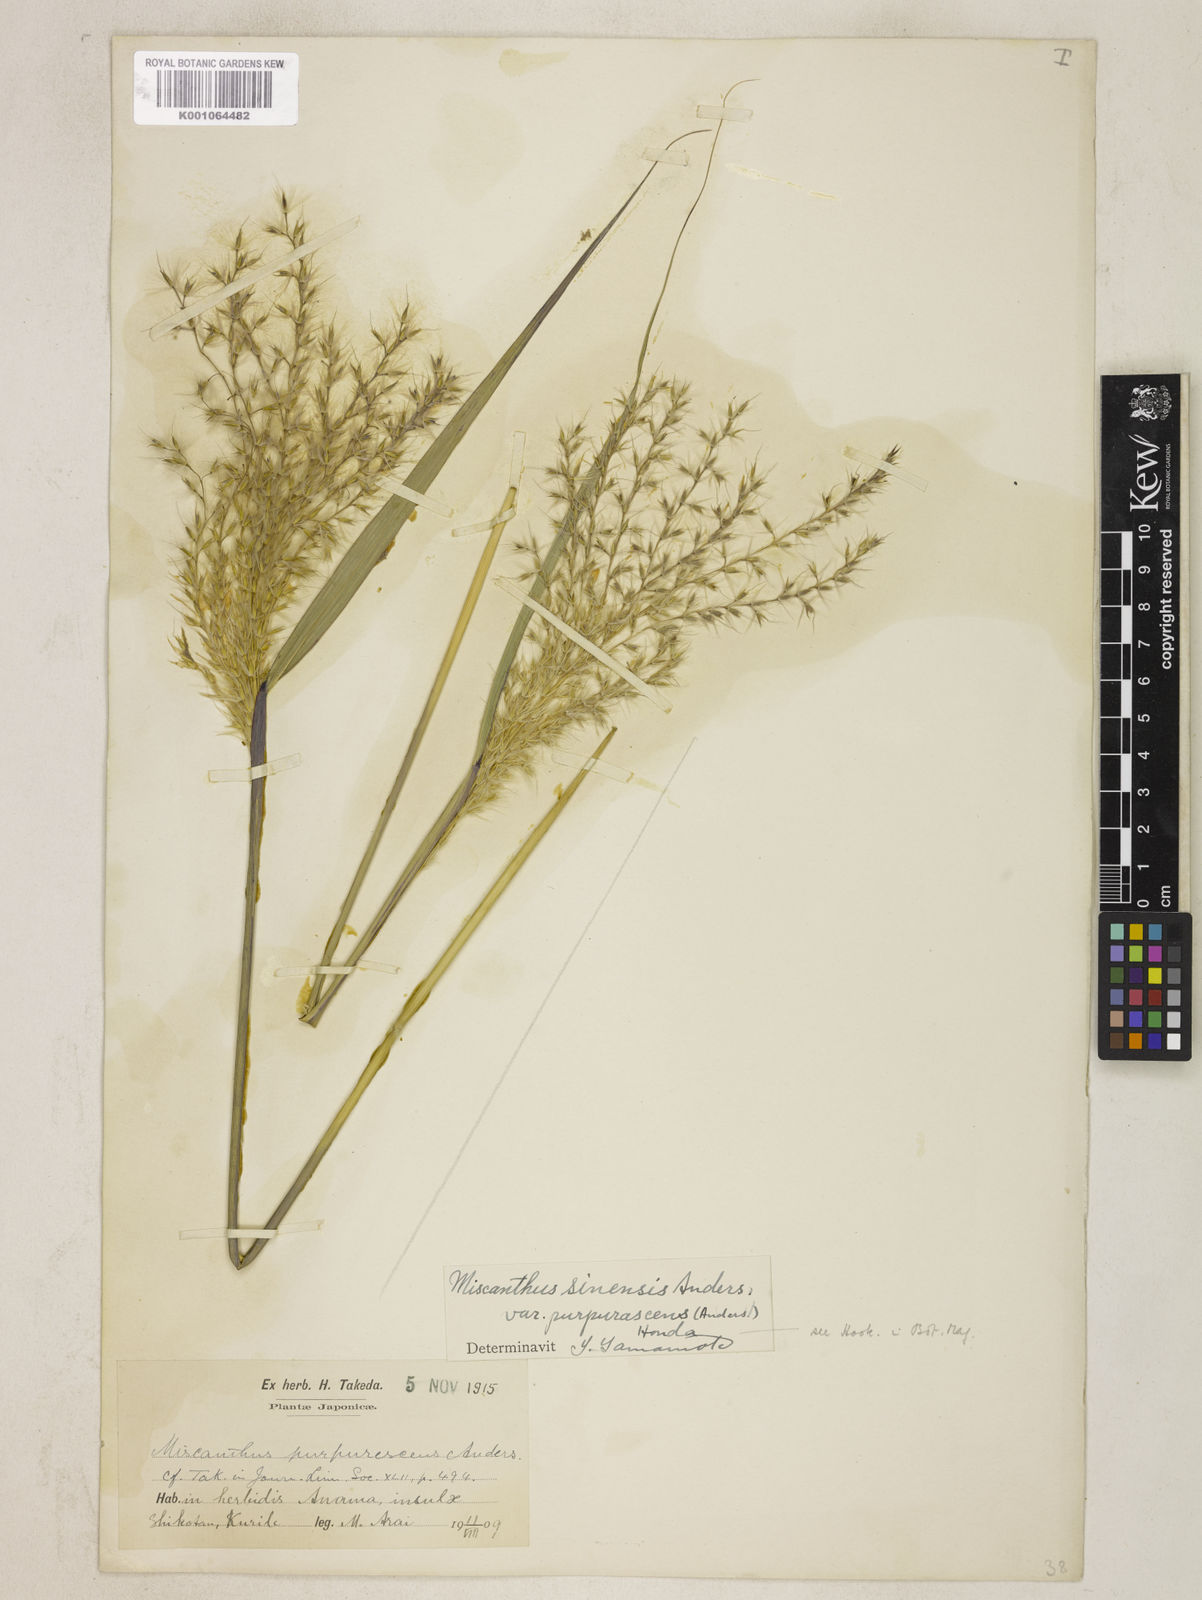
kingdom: Plantae
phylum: Tracheophyta
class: Liliopsida
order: Poales
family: Poaceae
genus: Miscanthus
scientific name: Miscanthus sinensis
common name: Chinese silvergrass
